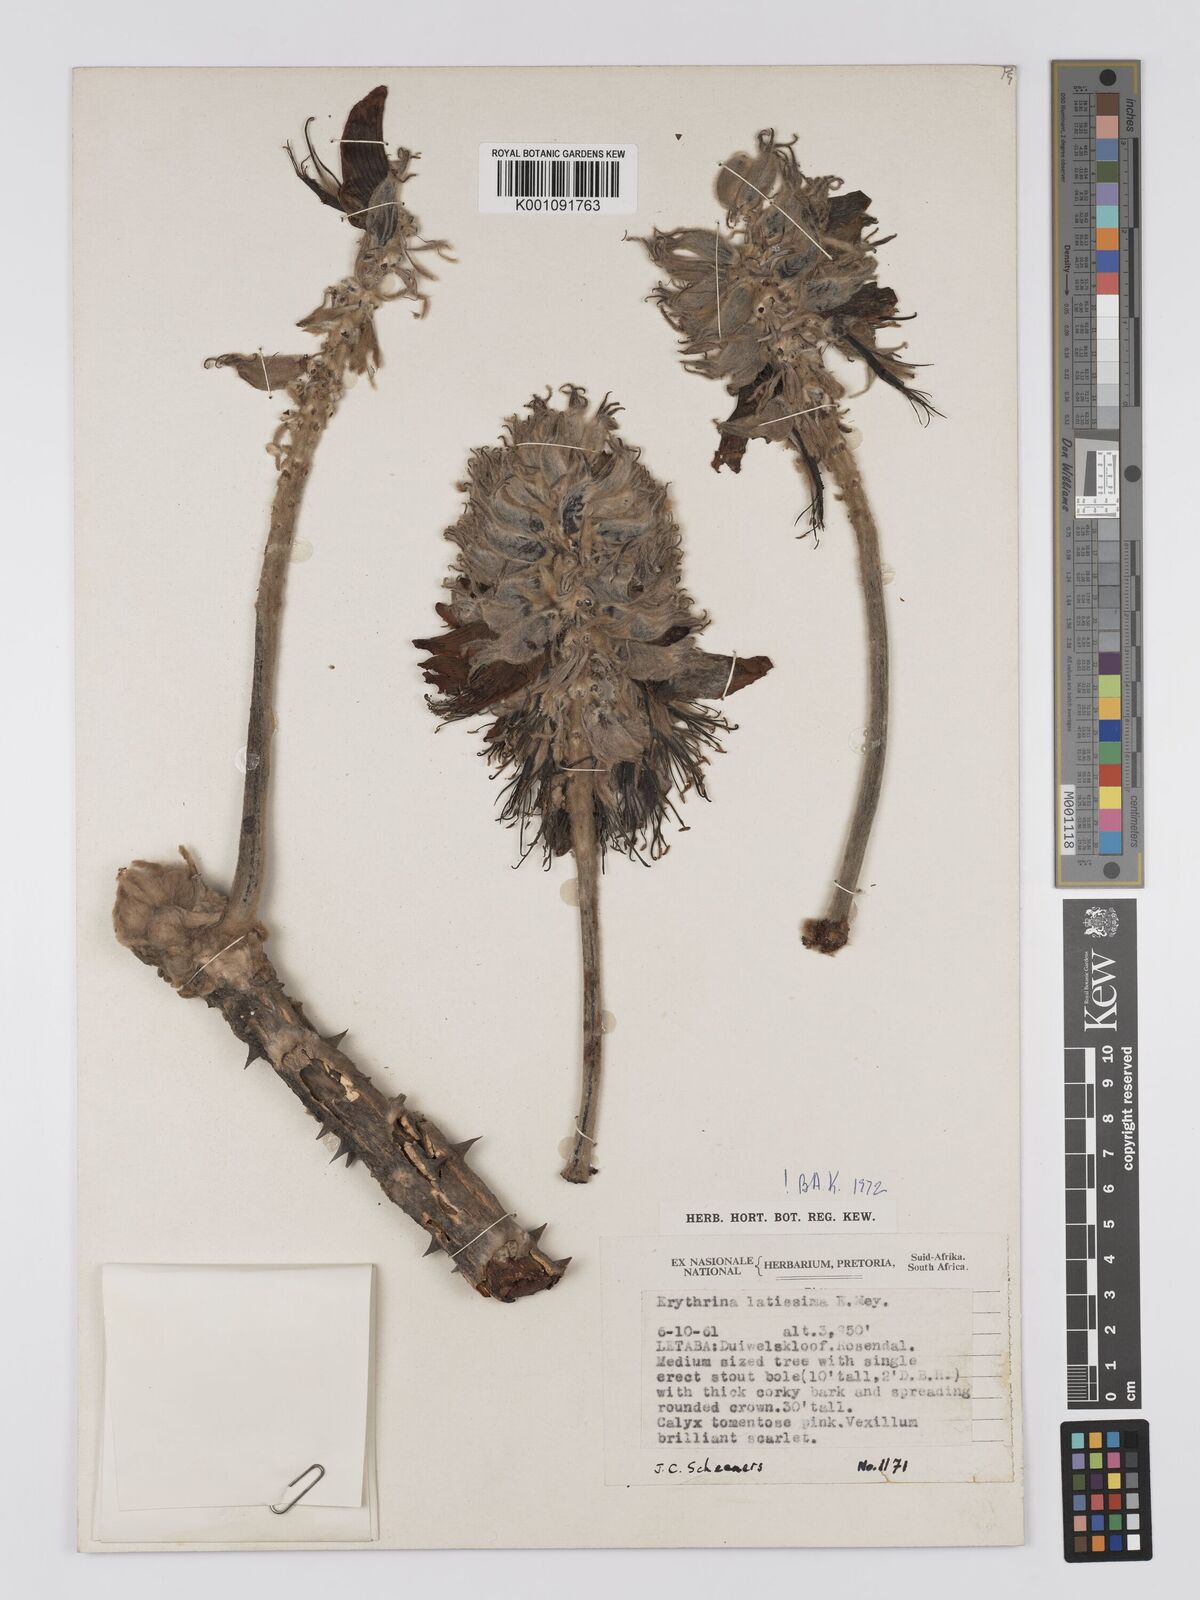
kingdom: Plantae
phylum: Tracheophyta
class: Magnoliopsida
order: Fabales
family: Fabaceae
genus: Erythrina
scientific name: Erythrina latissima
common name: Broad-leaved coral tree
